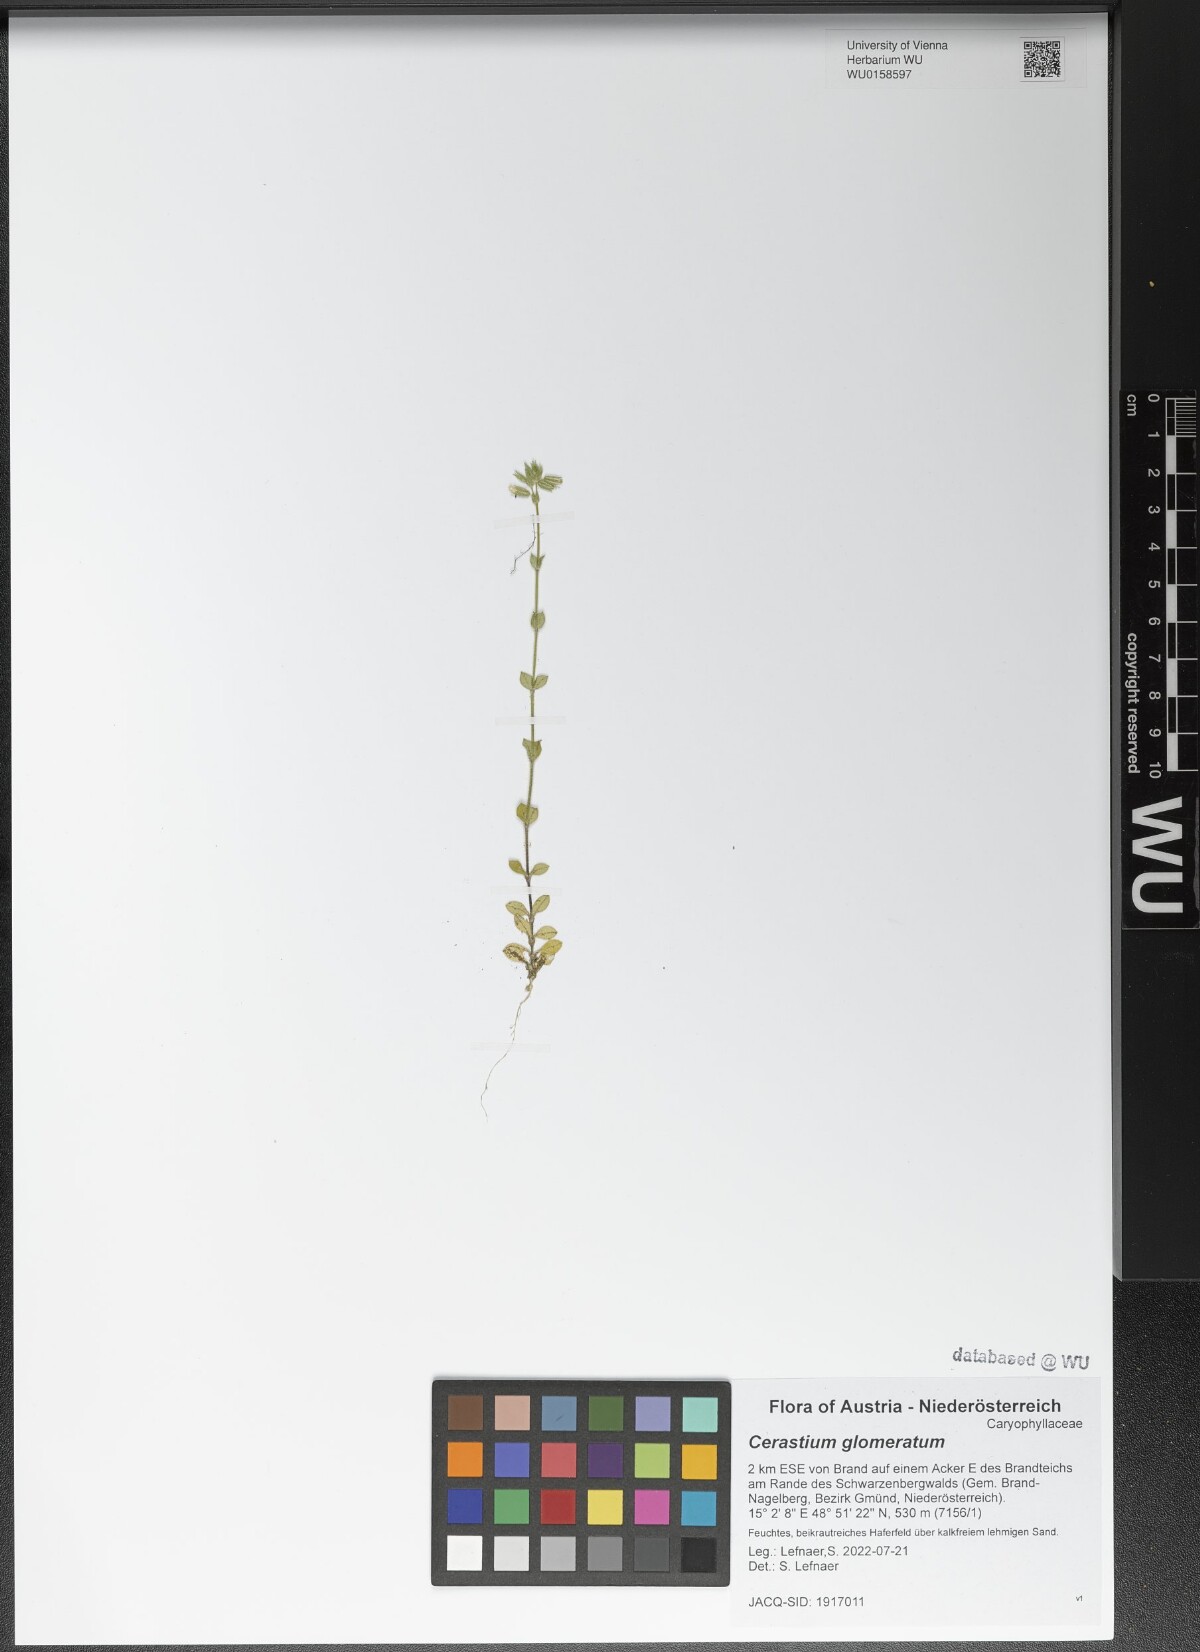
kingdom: Plantae
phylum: Tracheophyta
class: Magnoliopsida
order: Caryophyllales
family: Caryophyllaceae
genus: Cerastium
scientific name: Cerastium glomeratum
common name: Sticky chickweed
